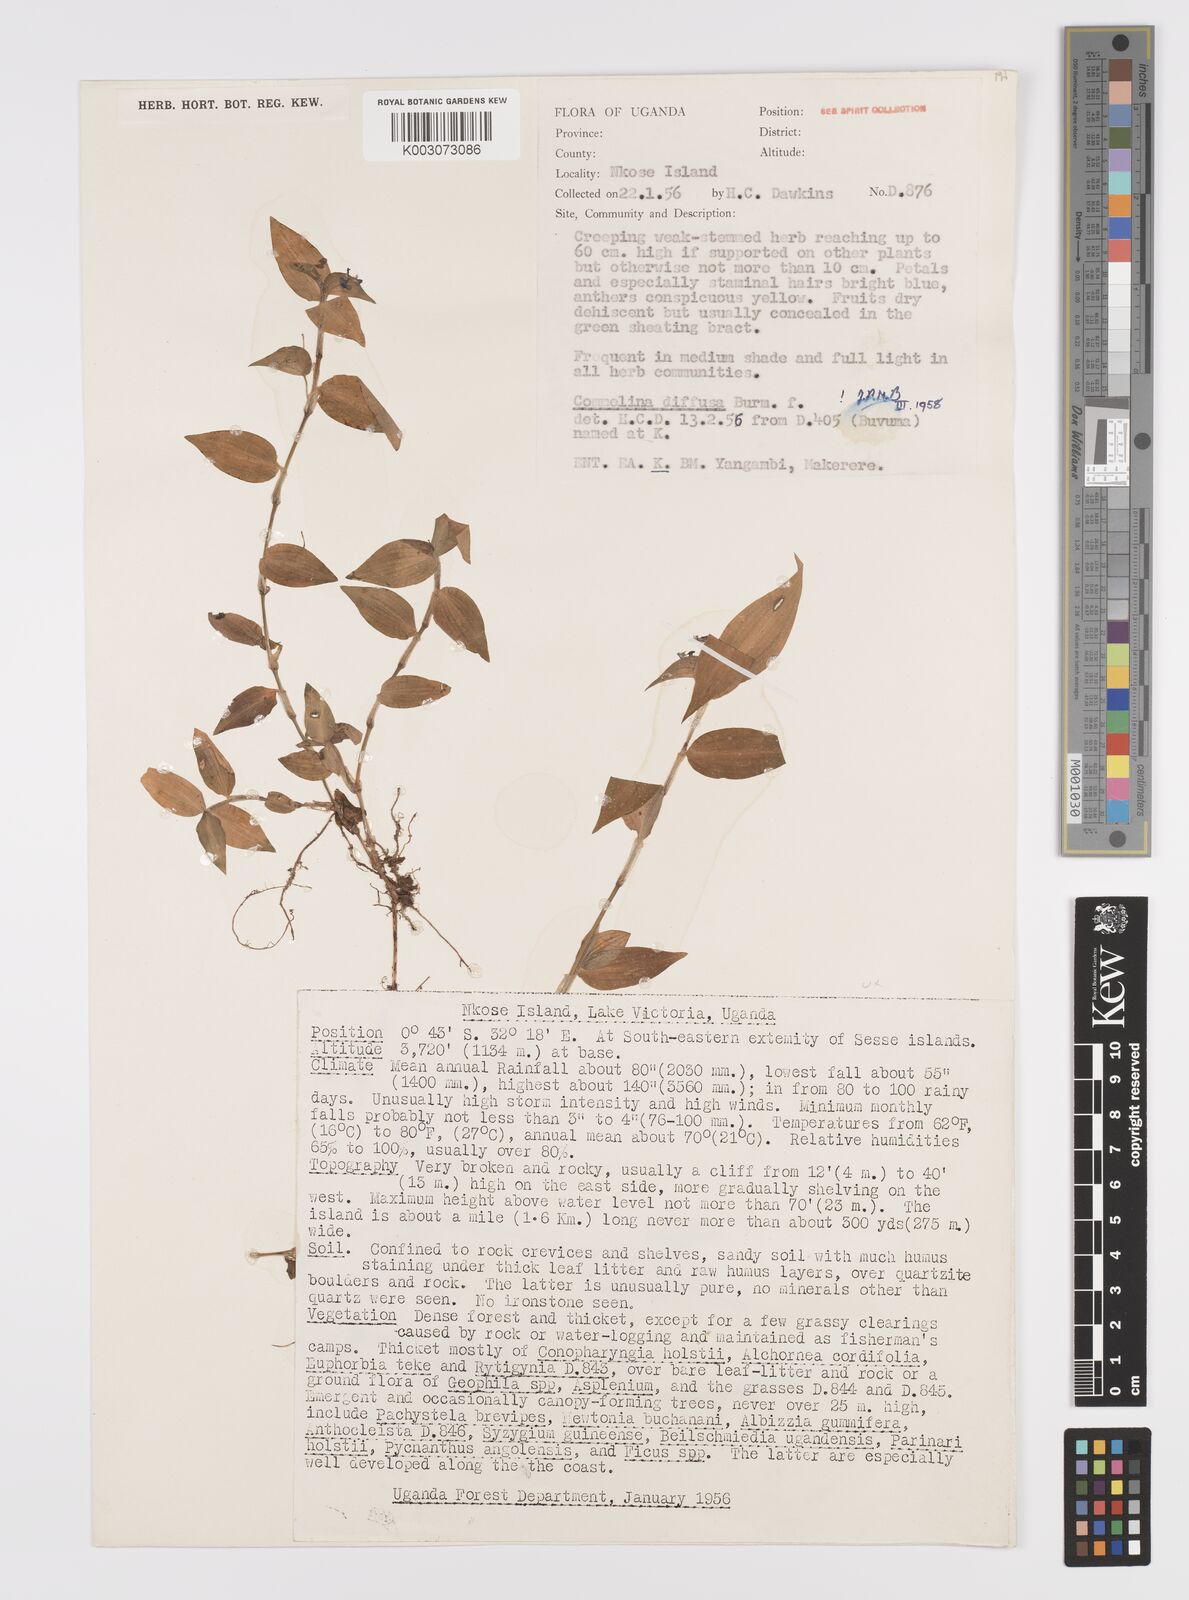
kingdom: Plantae
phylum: Tracheophyta
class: Liliopsida
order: Commelinales
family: Commelinaceae
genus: Commelina
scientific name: Commelina diffusa
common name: Climbing dayflower
